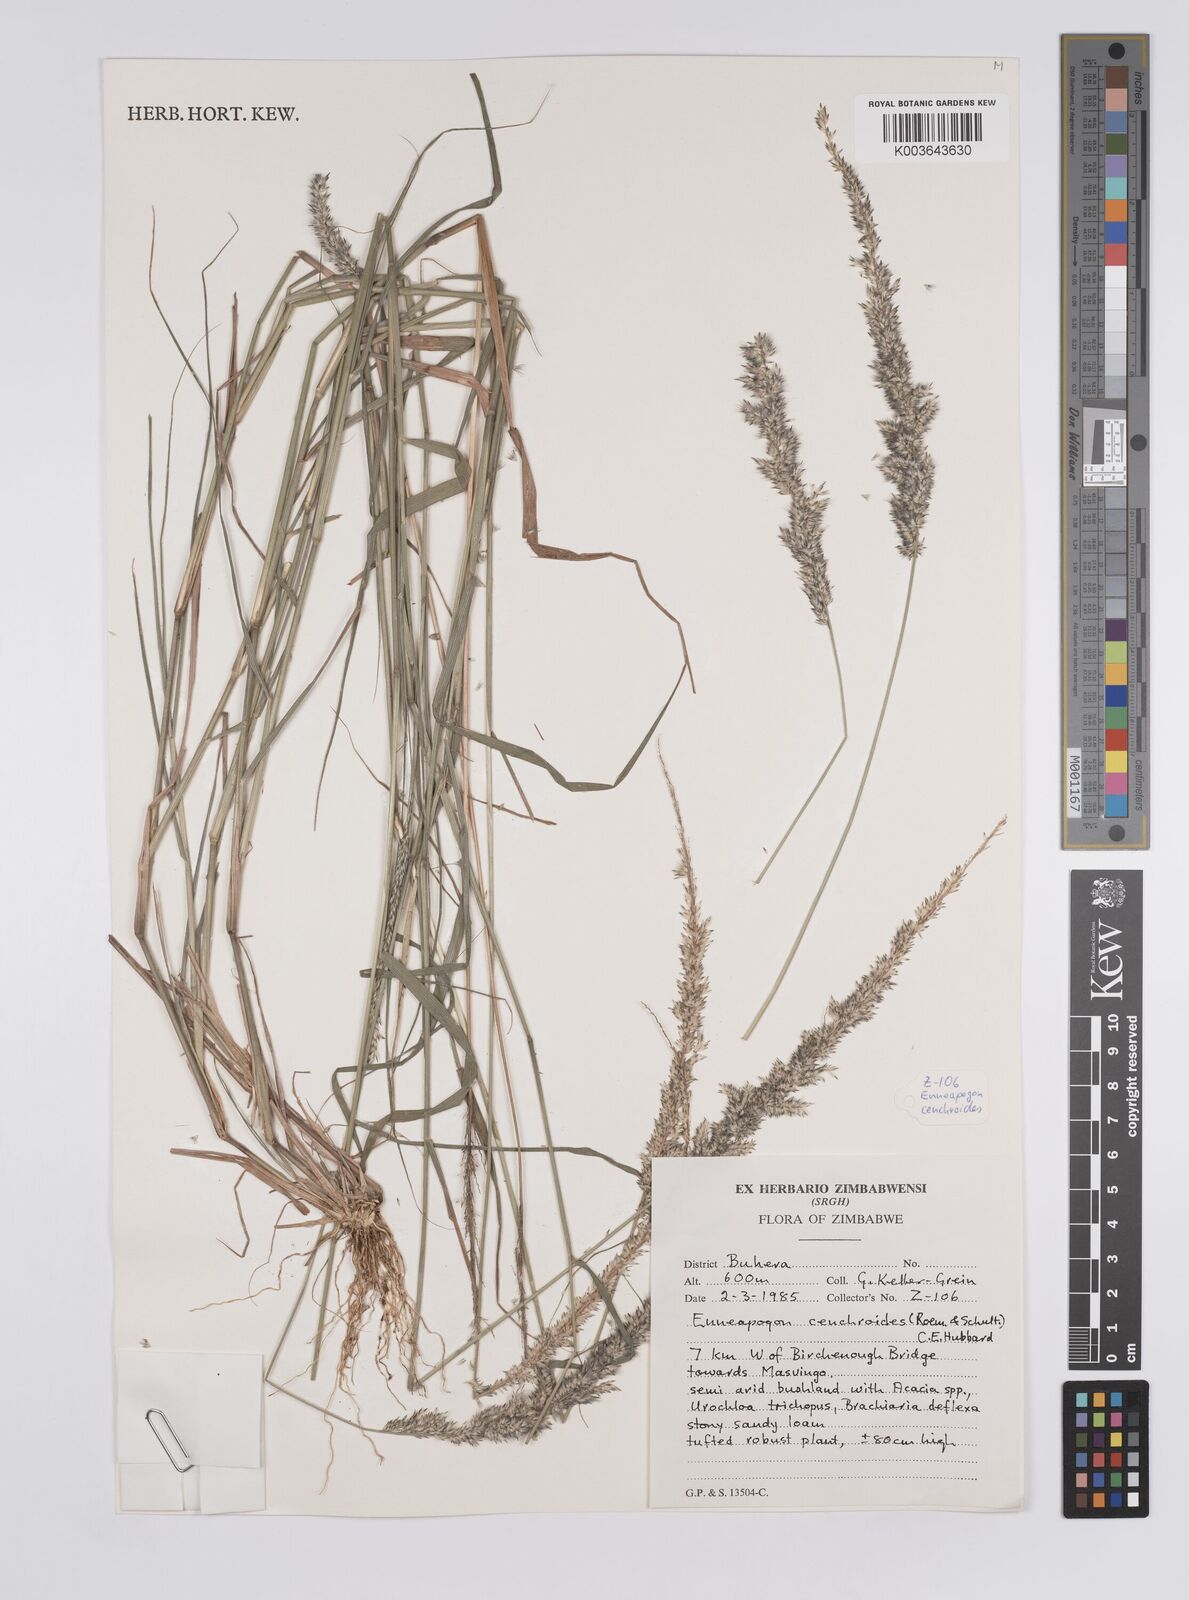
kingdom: Plantae
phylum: Tracheophyta
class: Liliopsida
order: Poales
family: Poaceae
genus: Enneapogon
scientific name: Enneapogon cenchroides
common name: Soft feather pappusgrass
